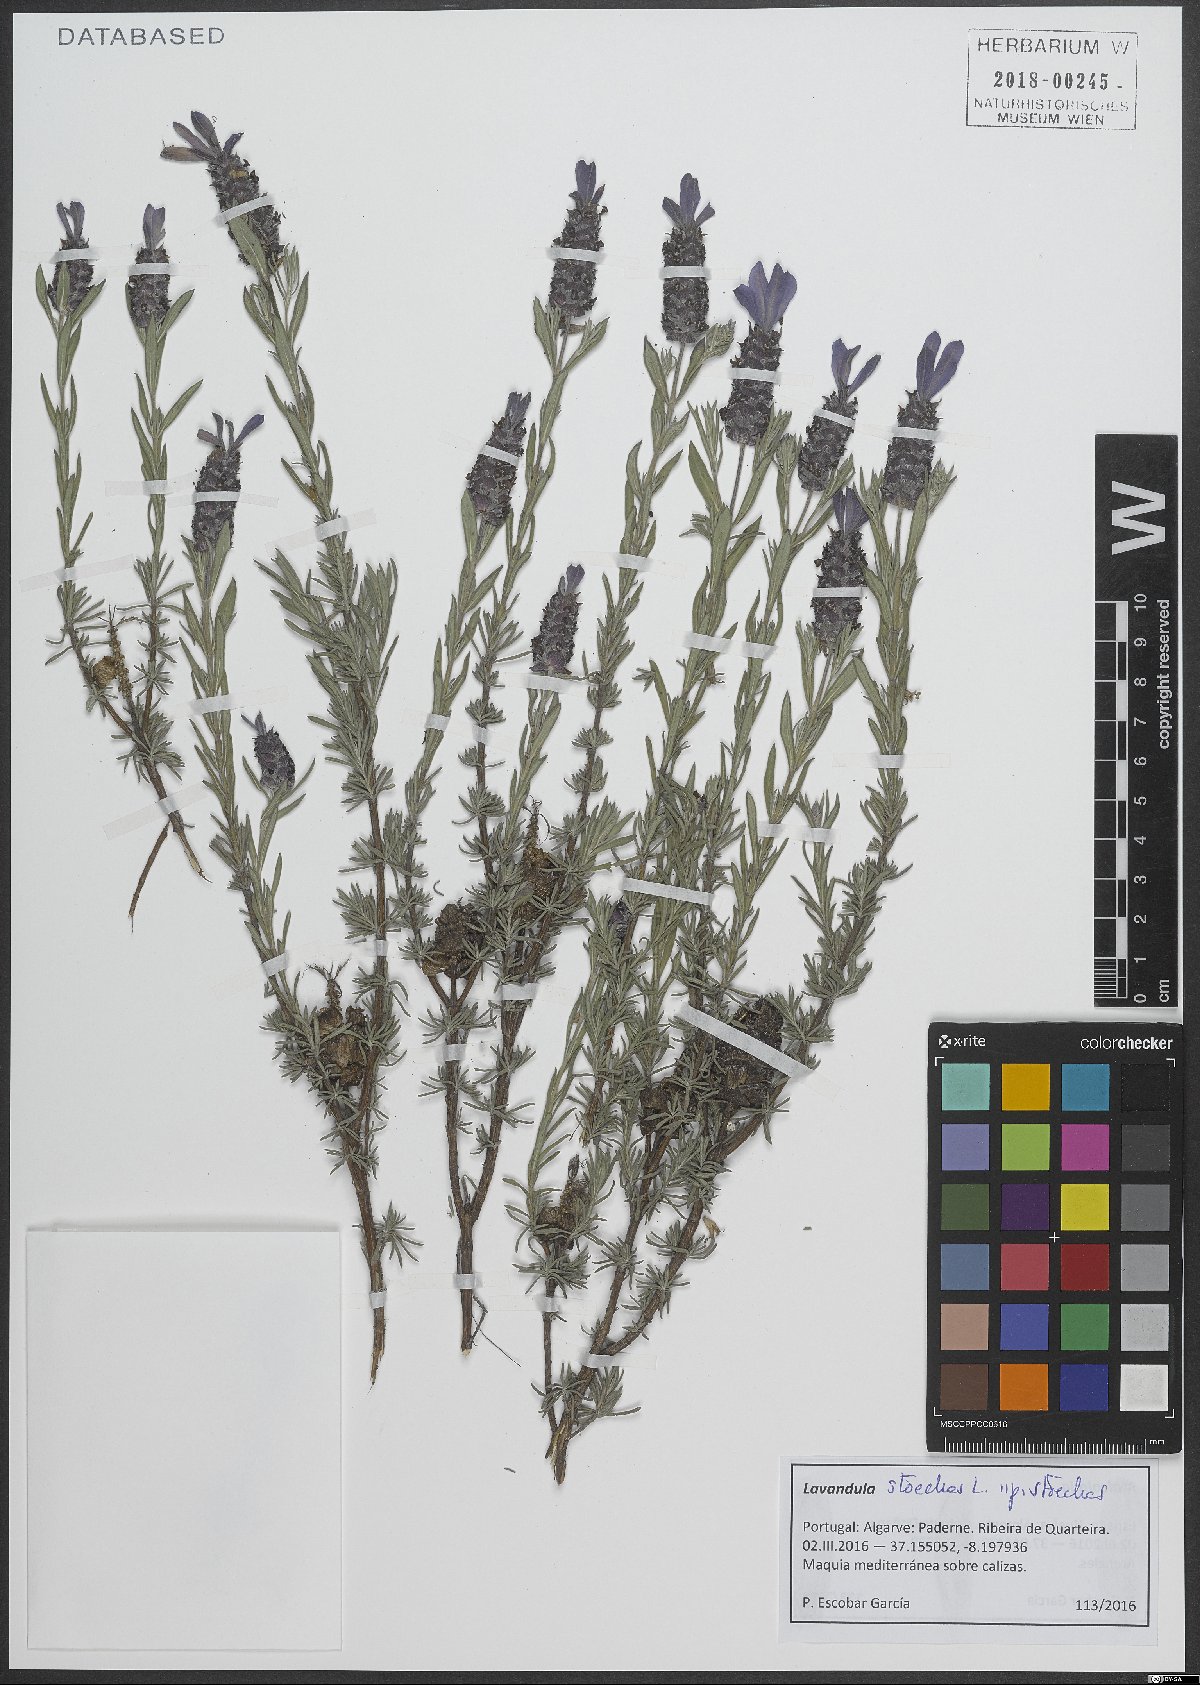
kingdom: Plantae
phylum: Tracheophyta
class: Magnoliopsida
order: Lamiales
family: Lamiaceae
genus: Lavandula
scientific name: Lavandula stoechas
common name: French lavender
